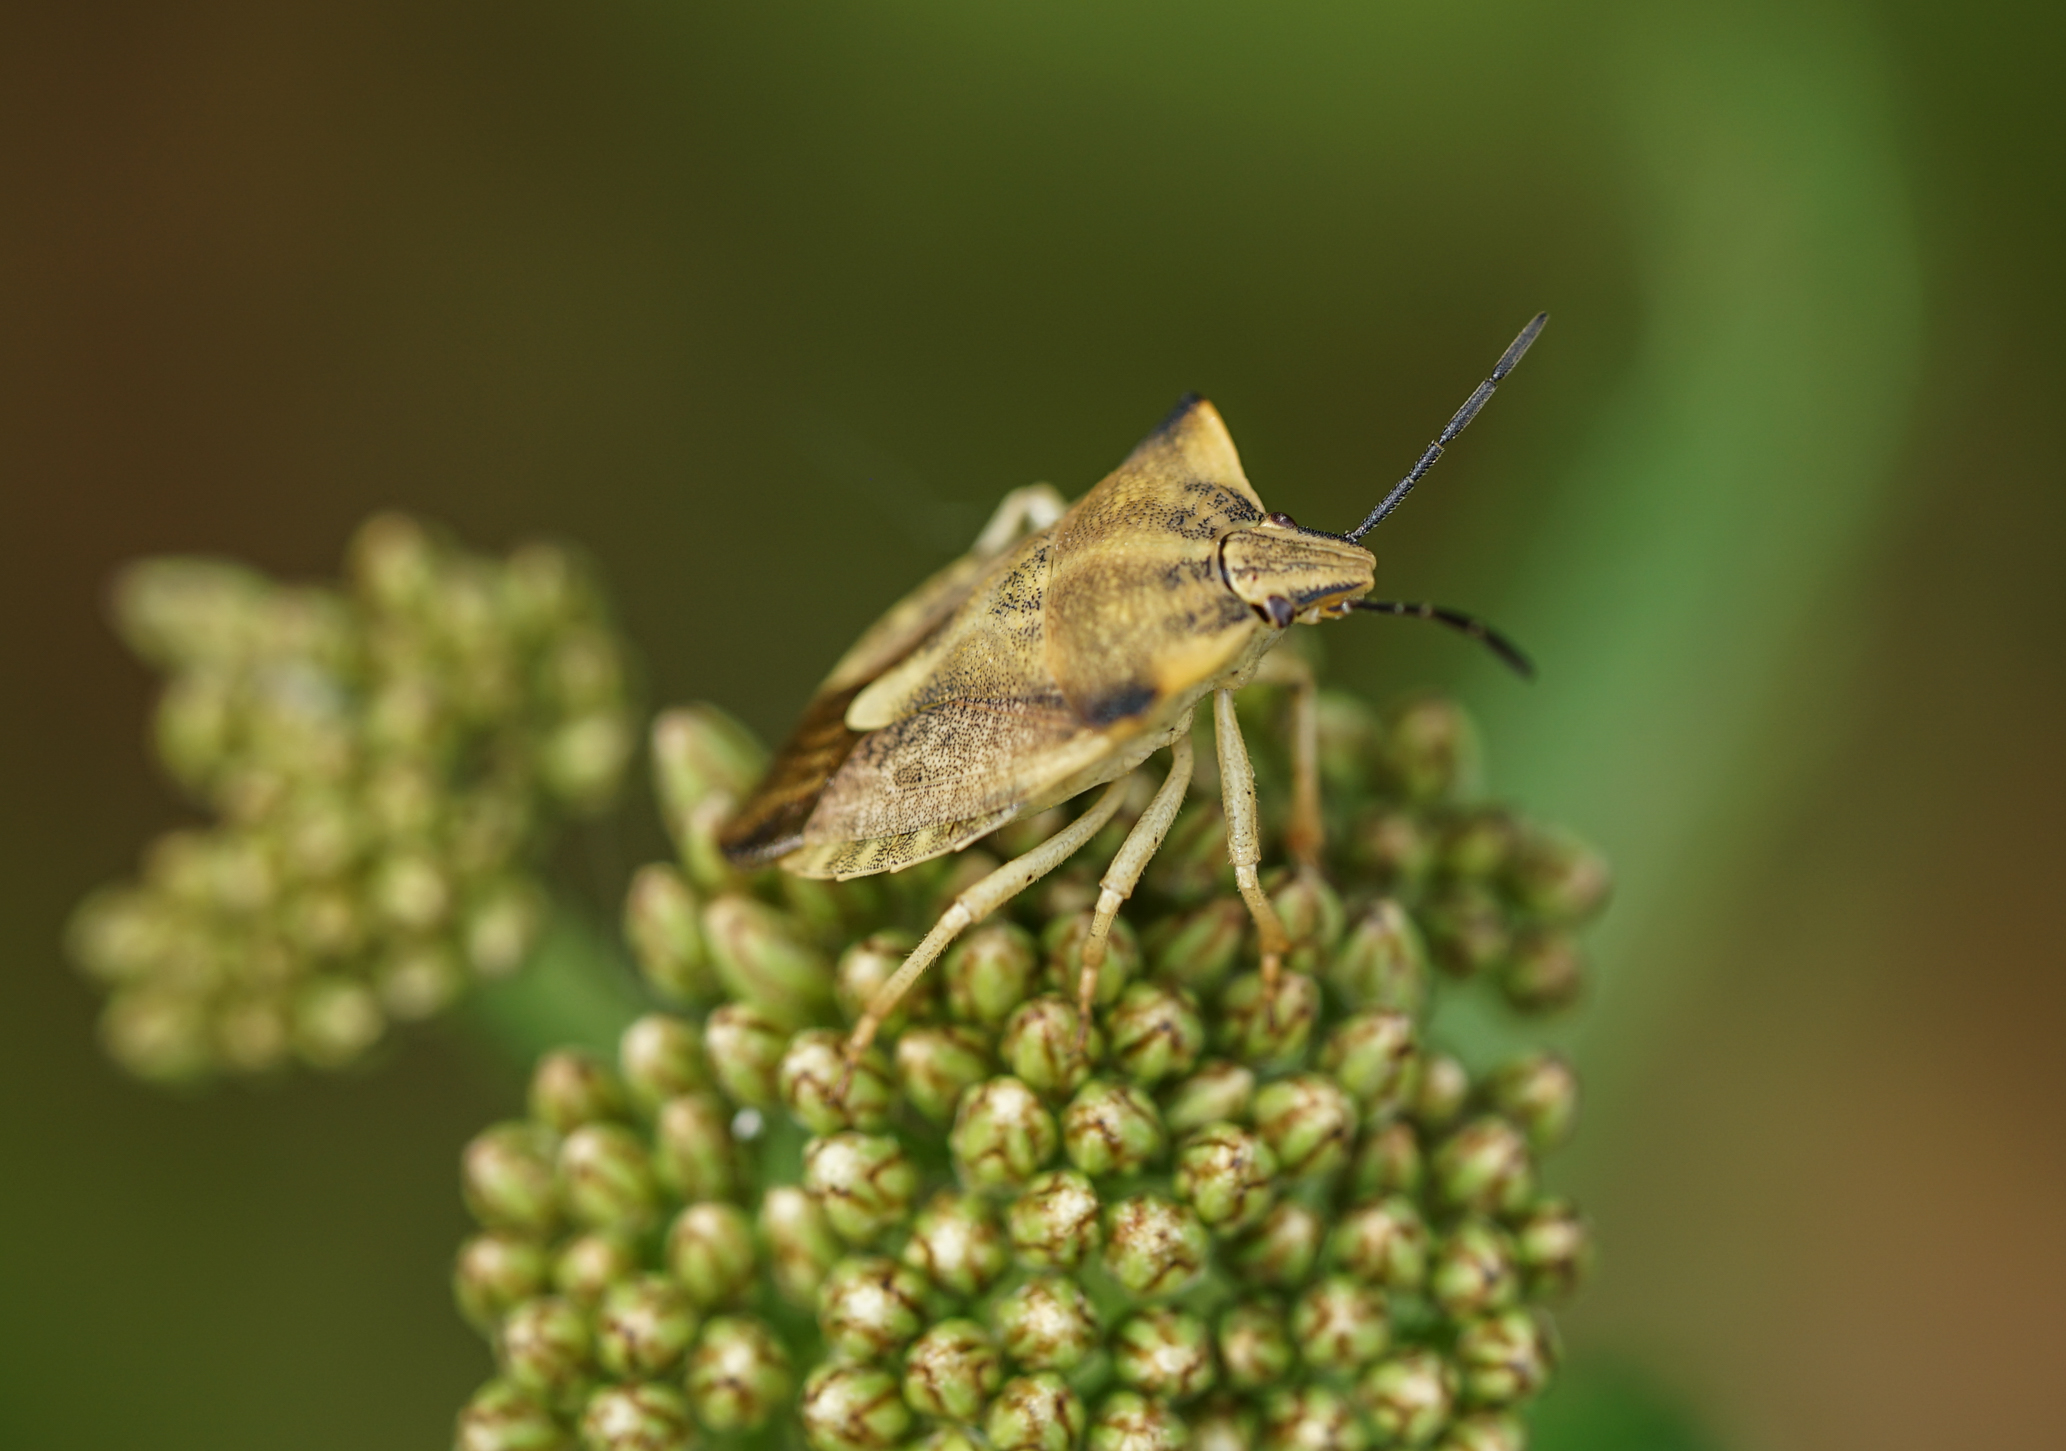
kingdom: Animalia
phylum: Arthropoda
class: Insecta
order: Hemiptera
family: Pentatomidae
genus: Carpocoris
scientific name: Carpocoris fuscispinus
